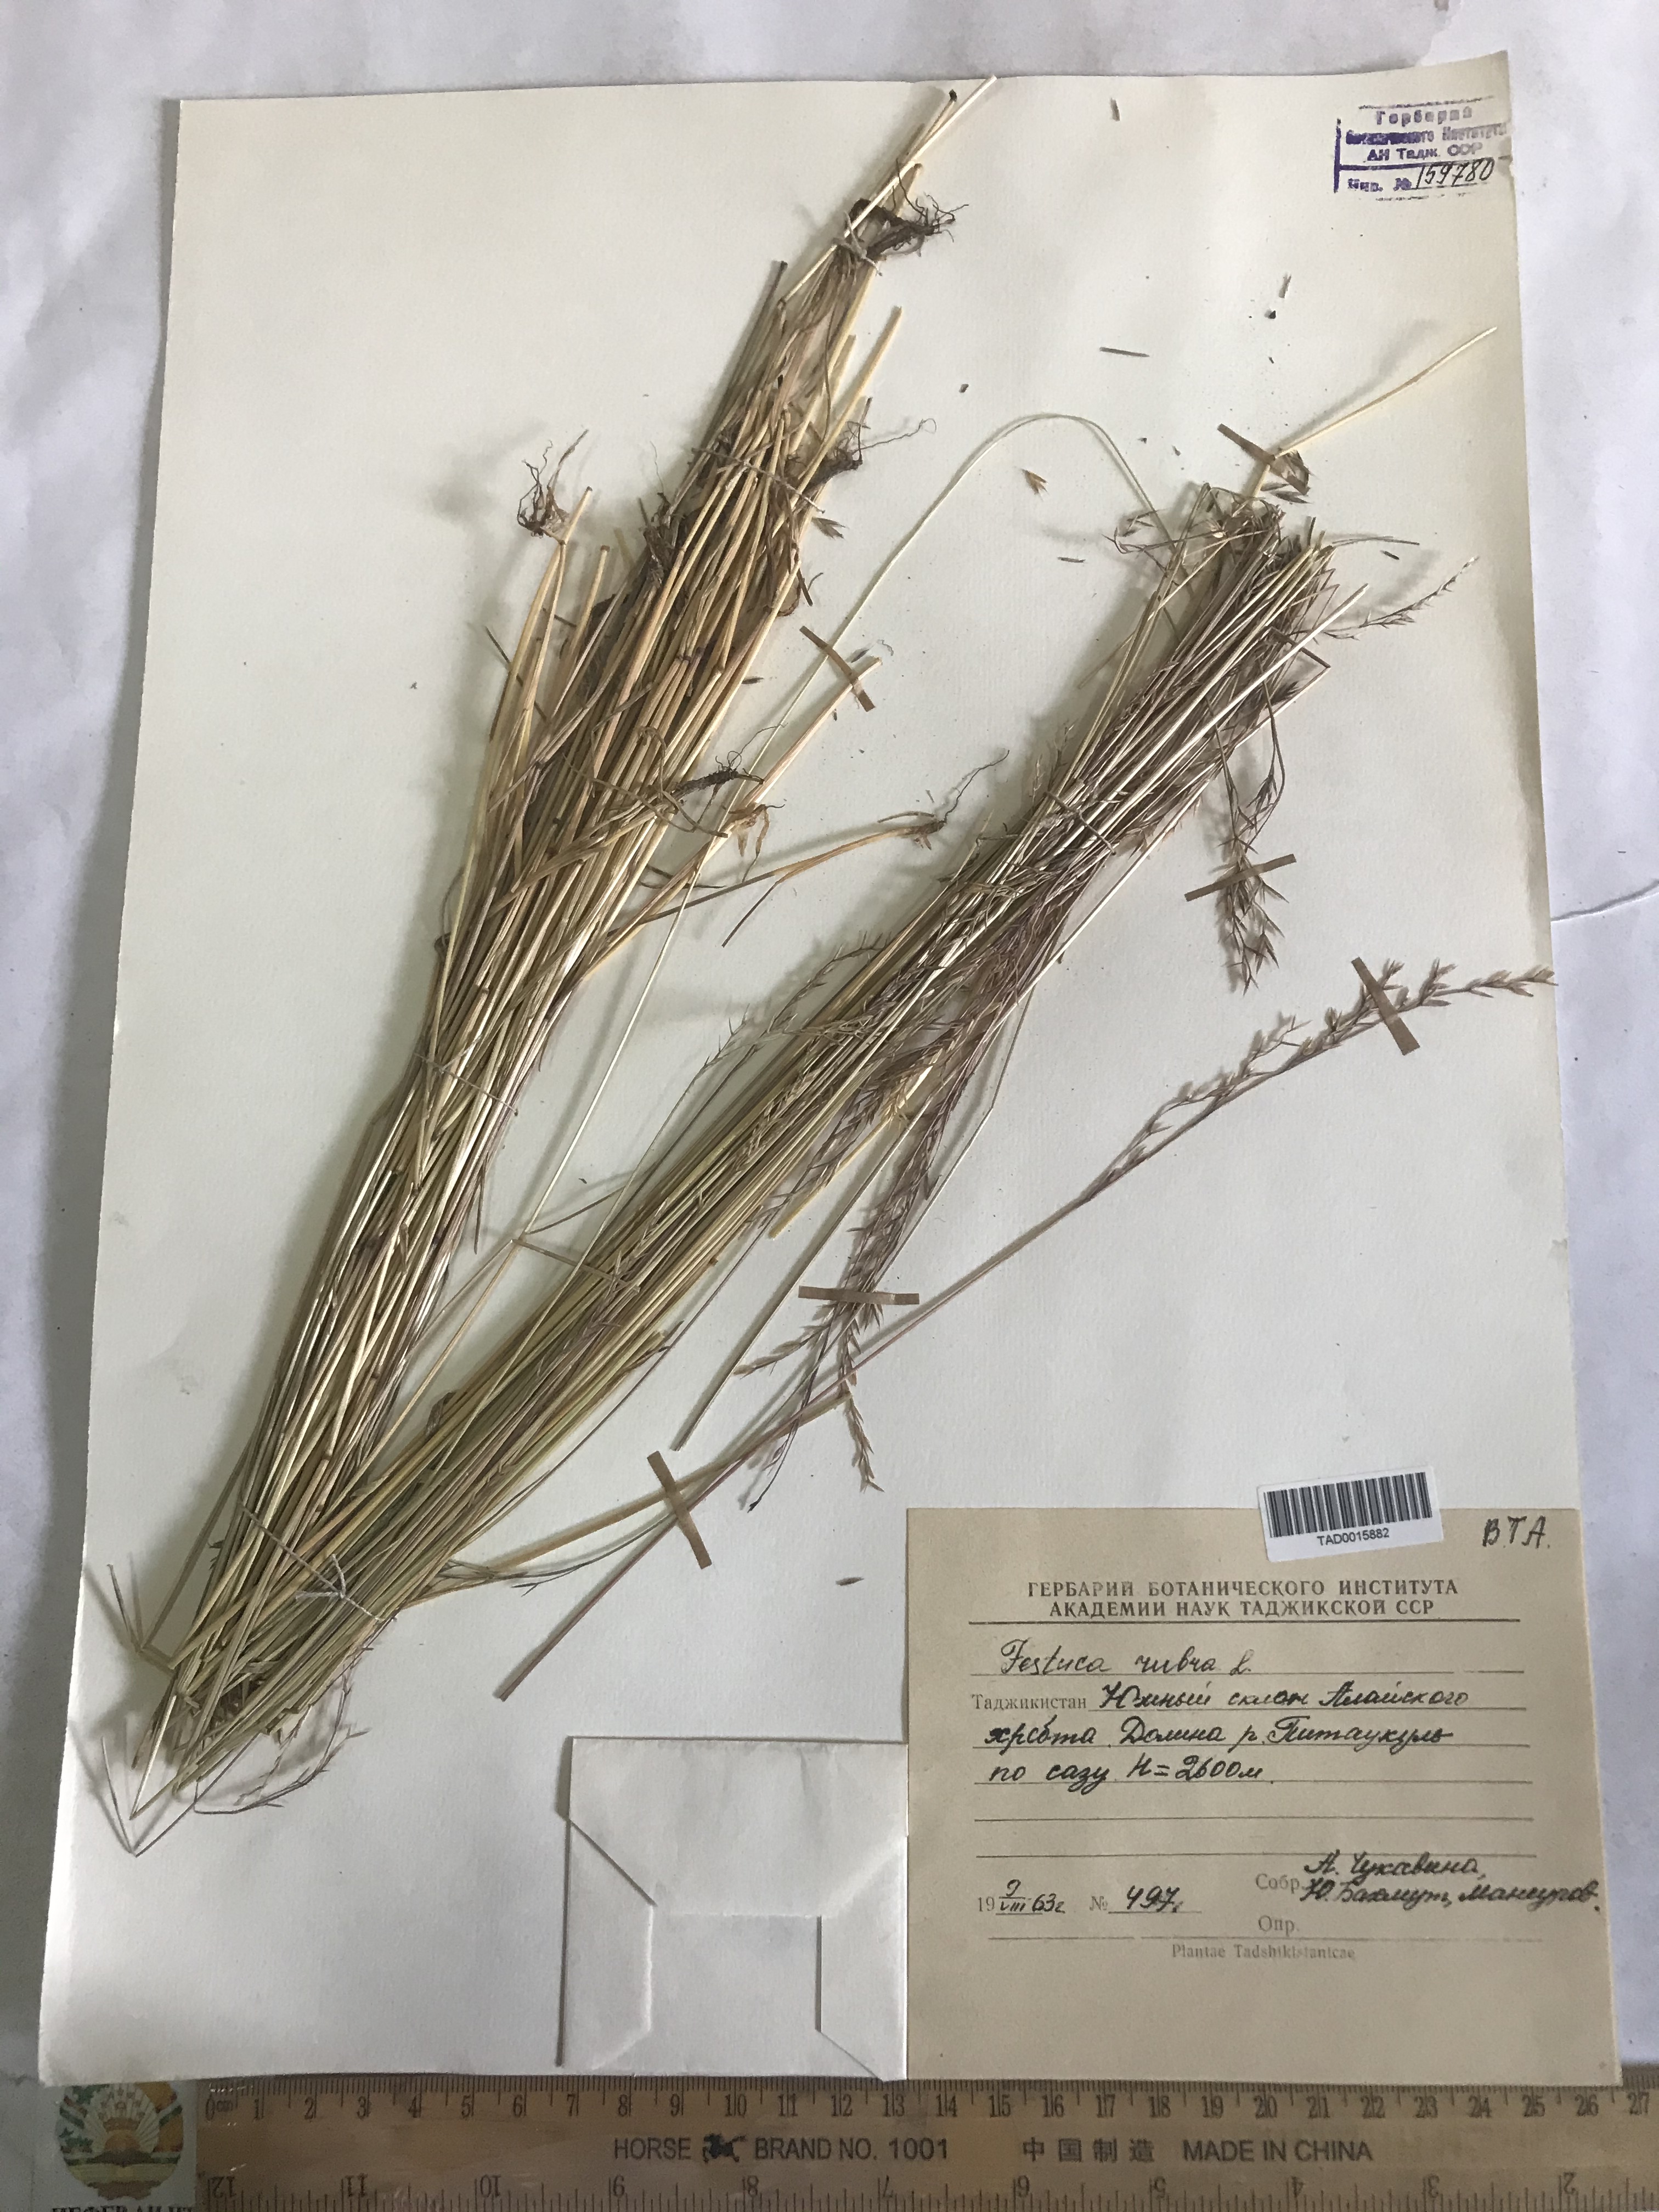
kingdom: Plantae
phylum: Tracheophyta
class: Liliopsida
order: Poales
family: Poaceae
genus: Festuca
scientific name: Festuca rubra
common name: Red fescue
